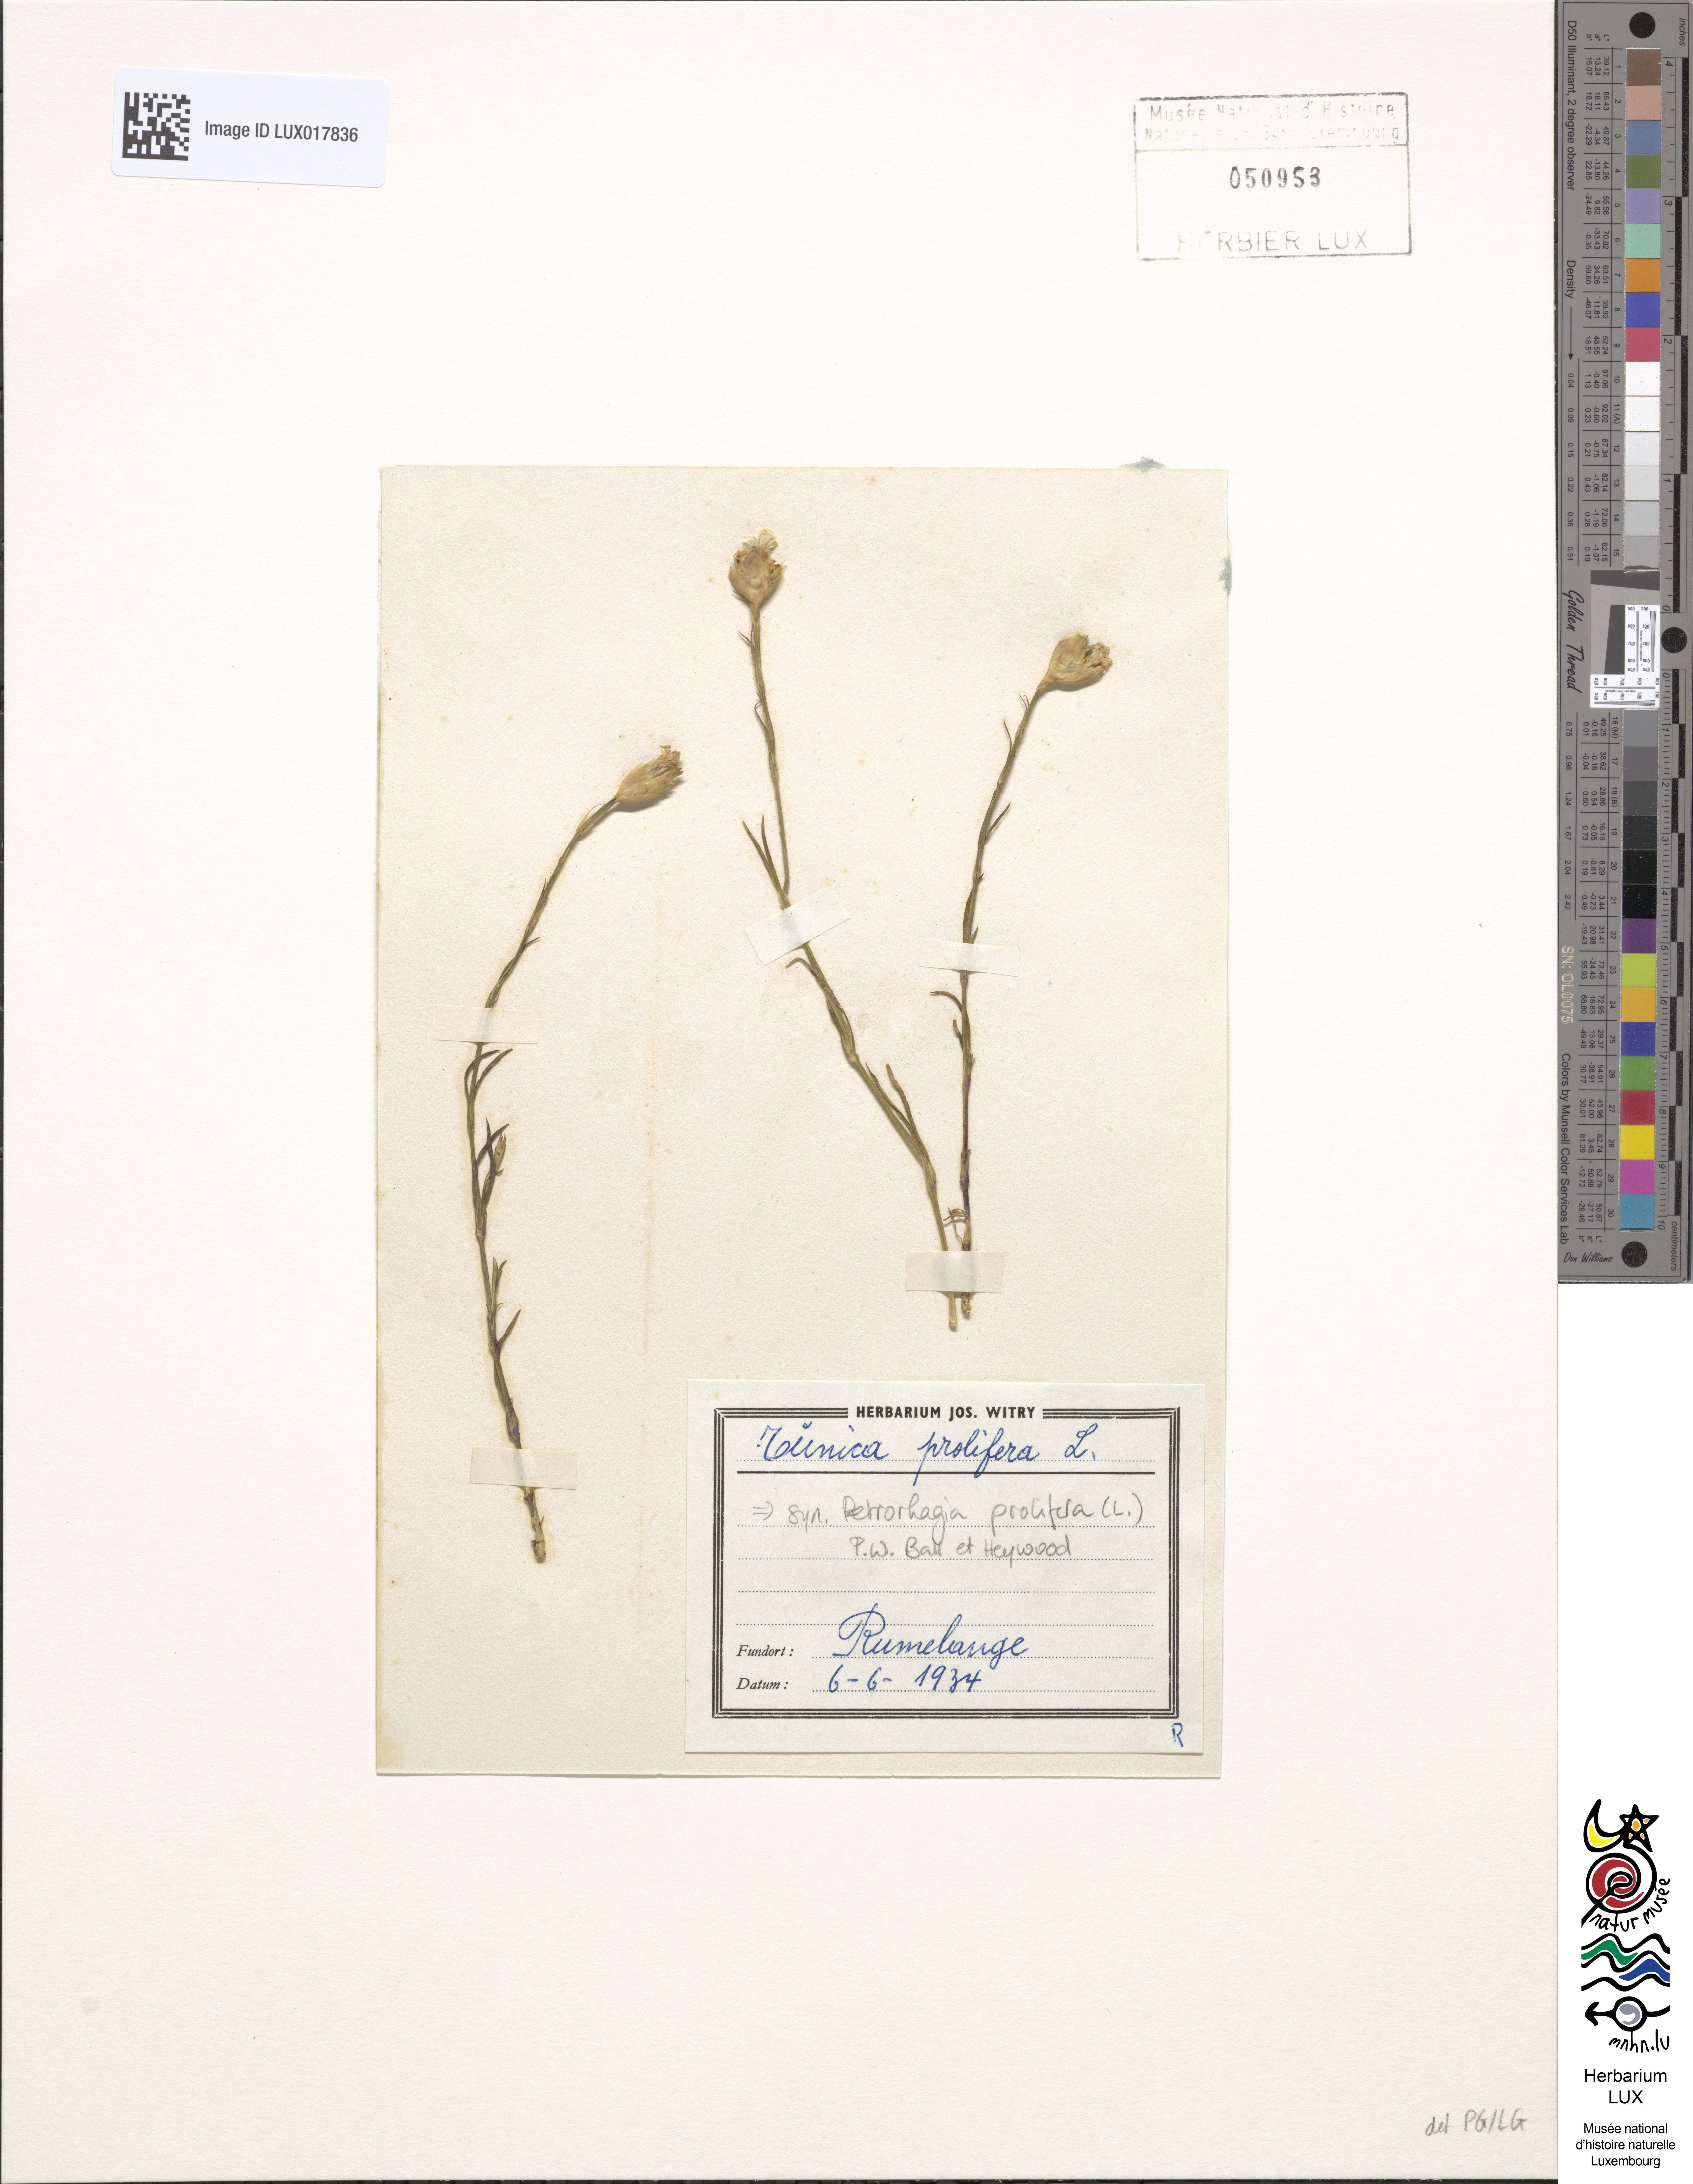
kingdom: Plantae
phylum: Tracheophyta
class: Magnoliopsida
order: Caryophyllales
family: Caryophyllaceae
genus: Petrorhagia
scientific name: Petrorhagia prolifera
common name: Proliferous pink
